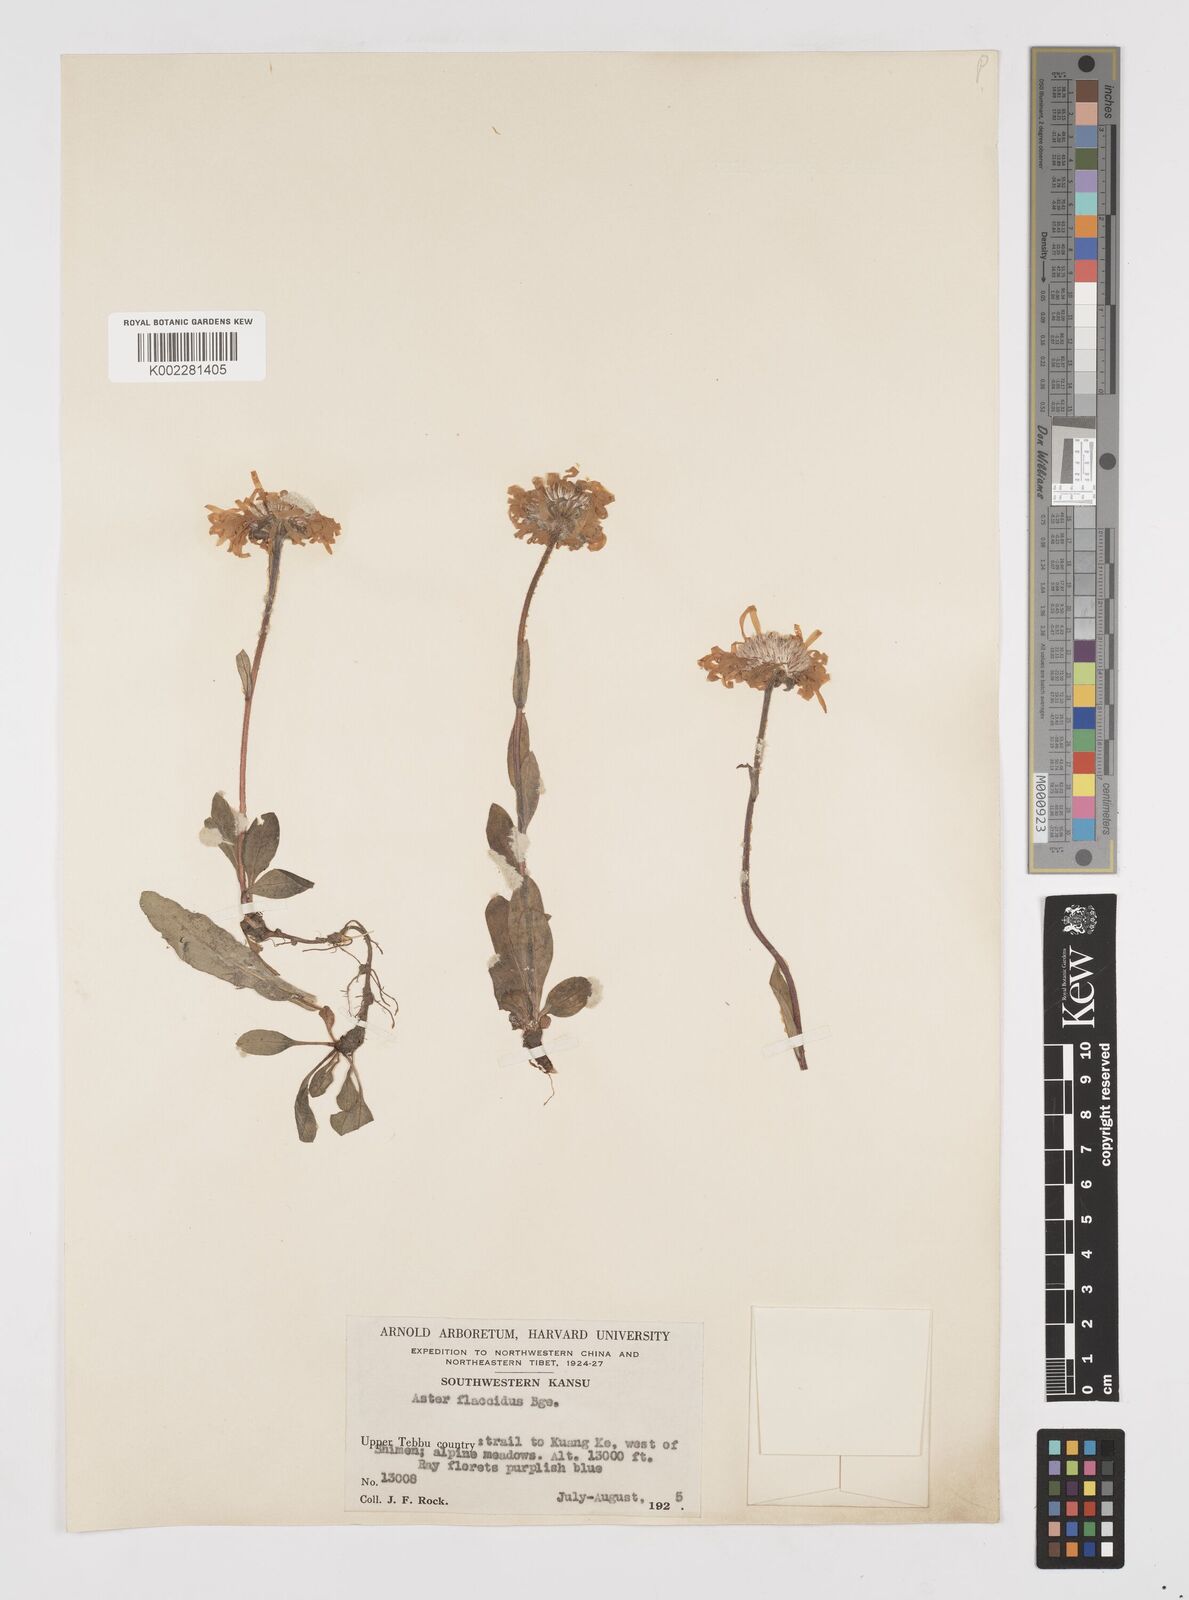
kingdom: Plantae
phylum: Tracheophyta
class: Magnoliopsida
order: Asterales
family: Asteraceae
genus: Tibetiodes
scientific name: Tibetiodes flaccida
